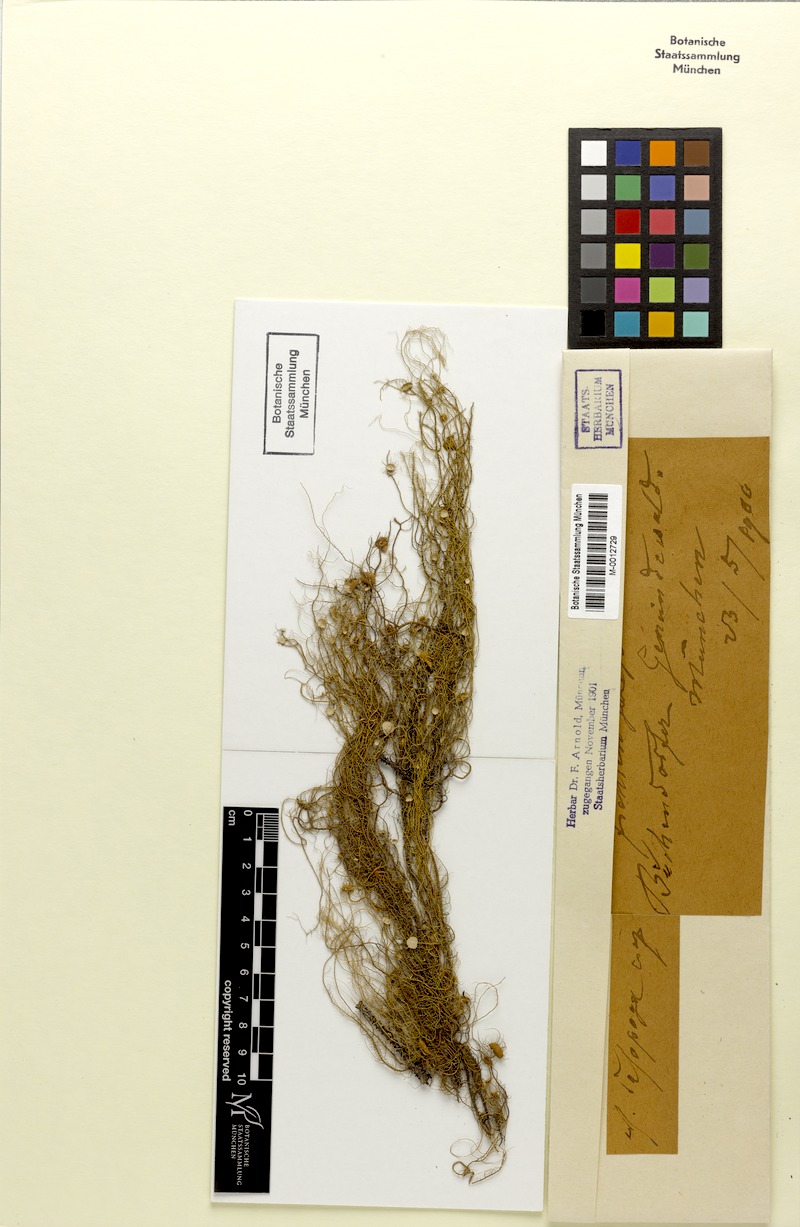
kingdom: Fungi
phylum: Ascomycota
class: Lecanoromycetes
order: Lecanorales
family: Parmeliaceae
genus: Usnea
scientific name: Usnea dasopoga
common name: Fishbone beard lichen
